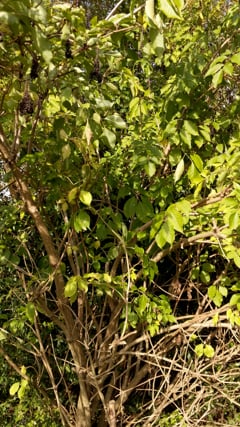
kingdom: Animalia
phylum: Chordata
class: Aves
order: Passeriformes
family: Paridae
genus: Parus
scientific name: Parus major
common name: Great tit
